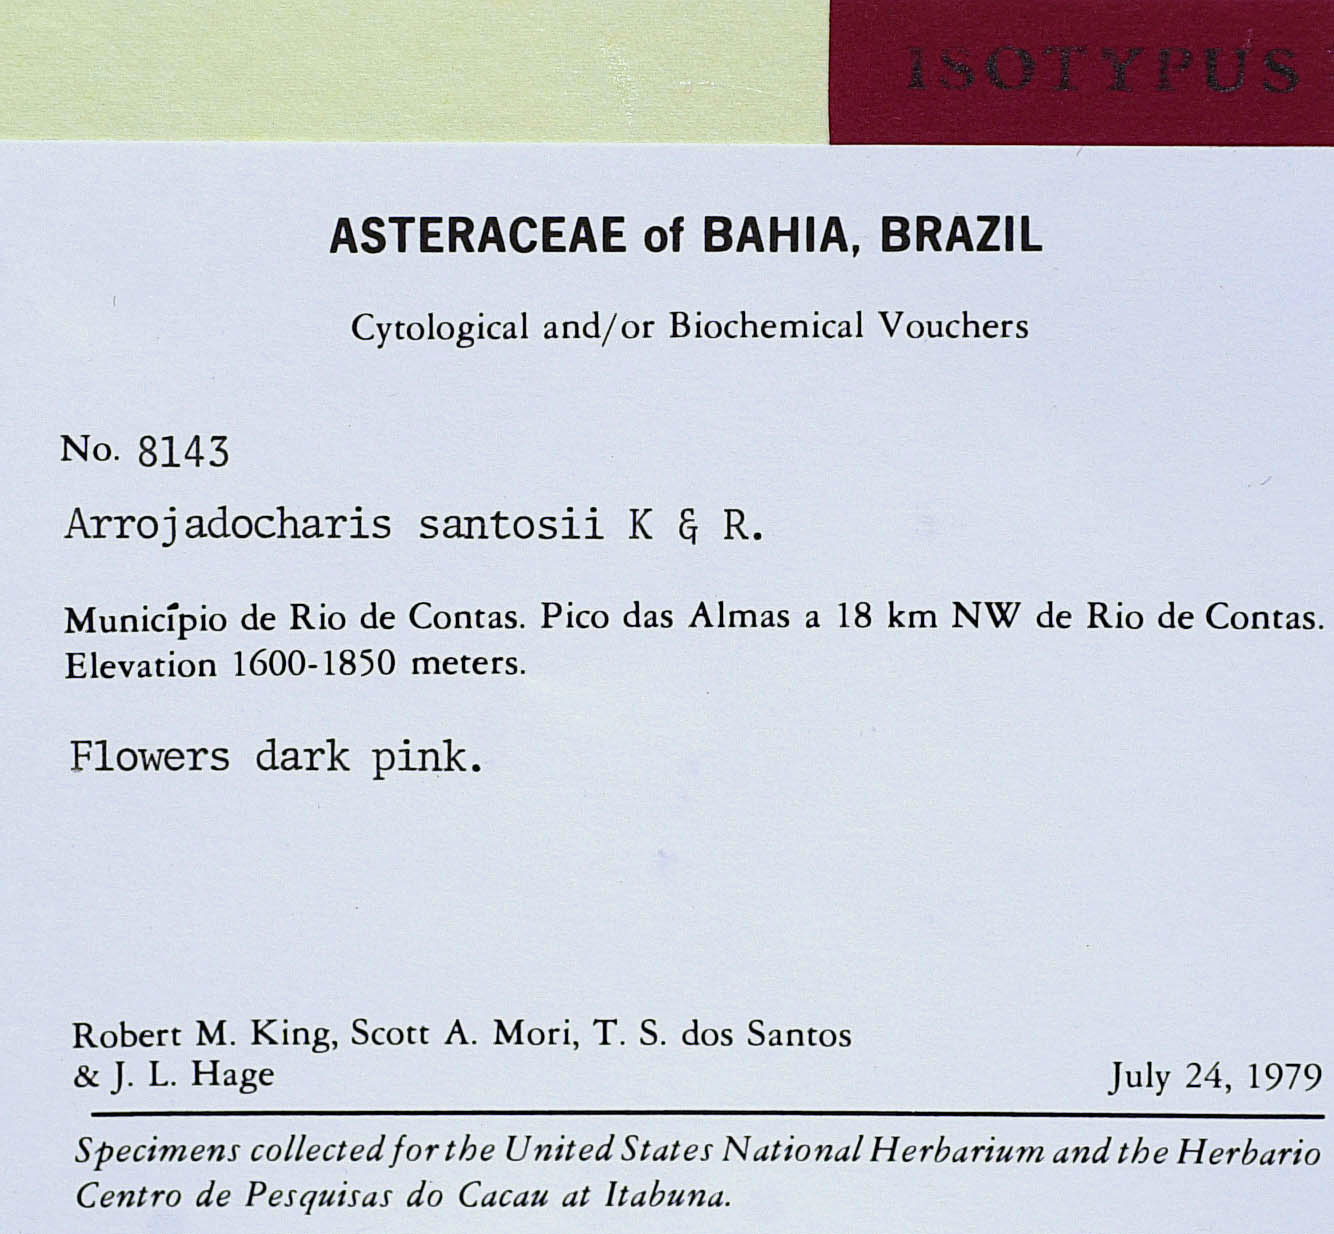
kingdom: Plantae
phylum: Tracheophyta
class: Magnoliopsida
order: Asterales
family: Asteraceae
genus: Arrojadocharis
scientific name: Arrojadocharis santosii
